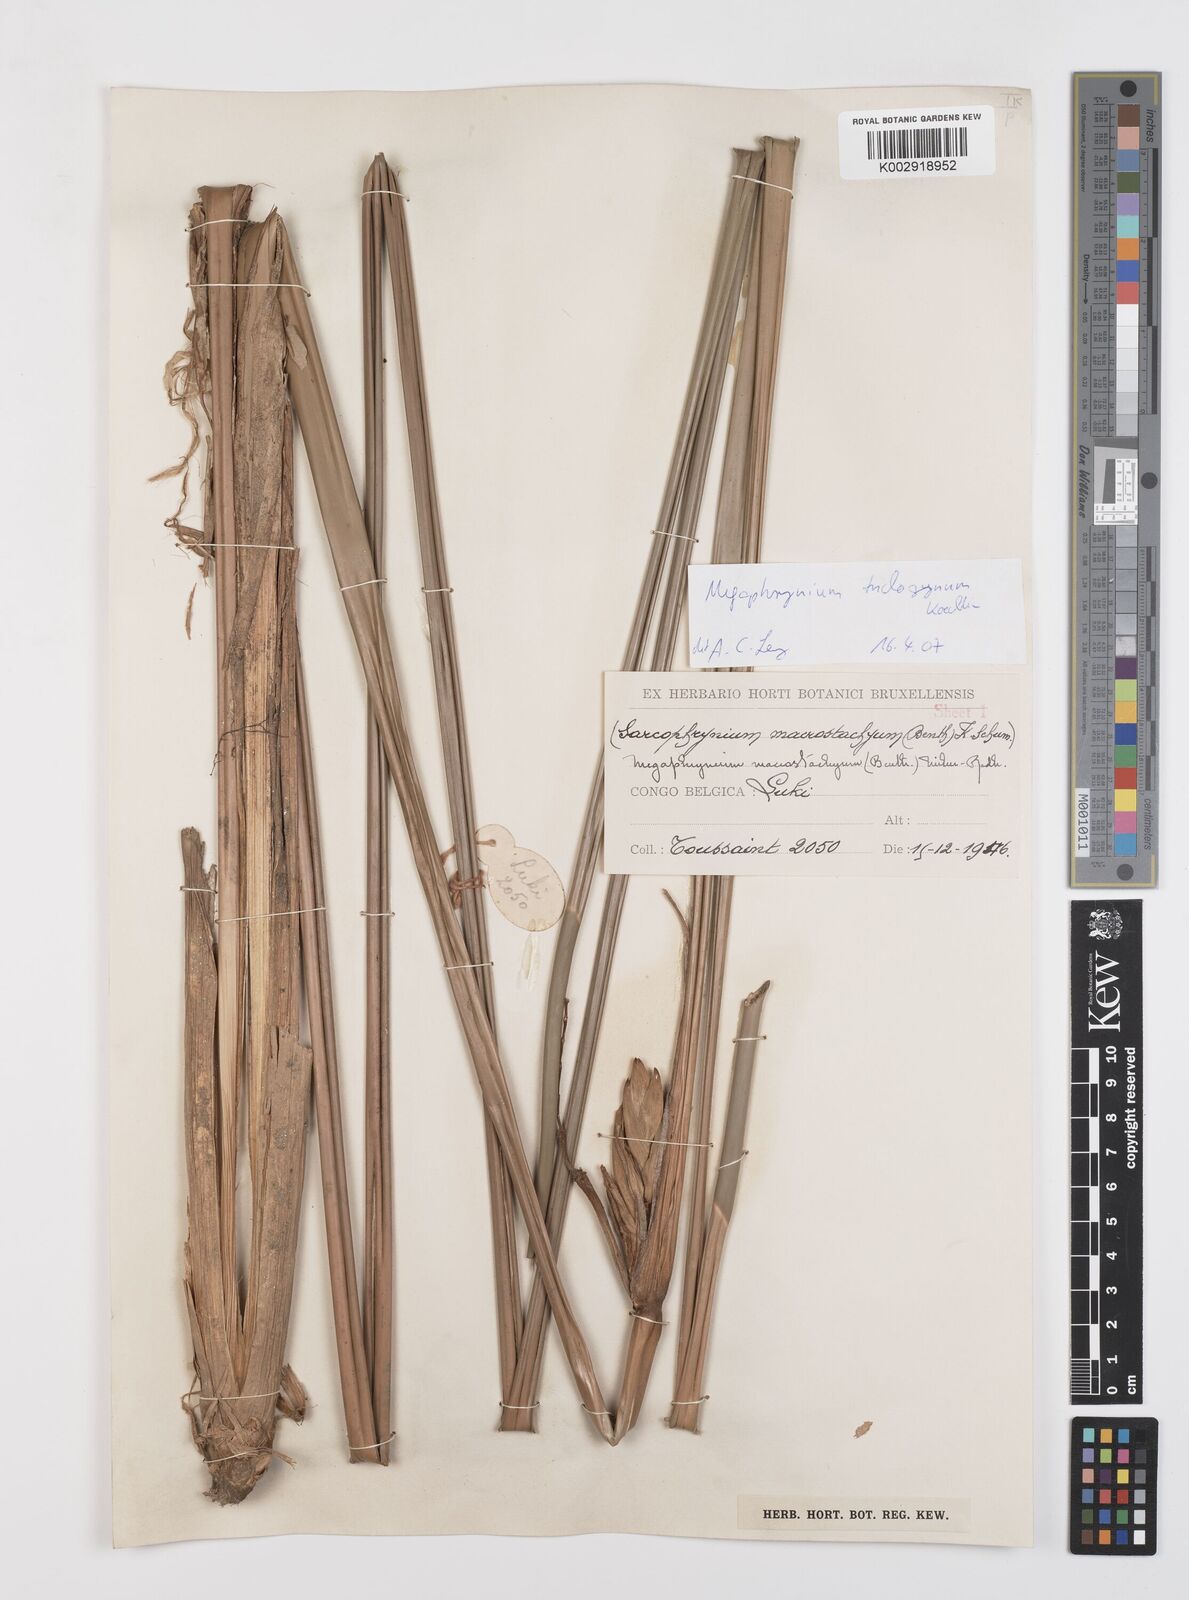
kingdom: Plantae
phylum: Tracheophyta
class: Liliopsida
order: Zingiberales
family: Marantaceae
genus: Megaphrynium
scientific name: Megaphrynium trichogynum
